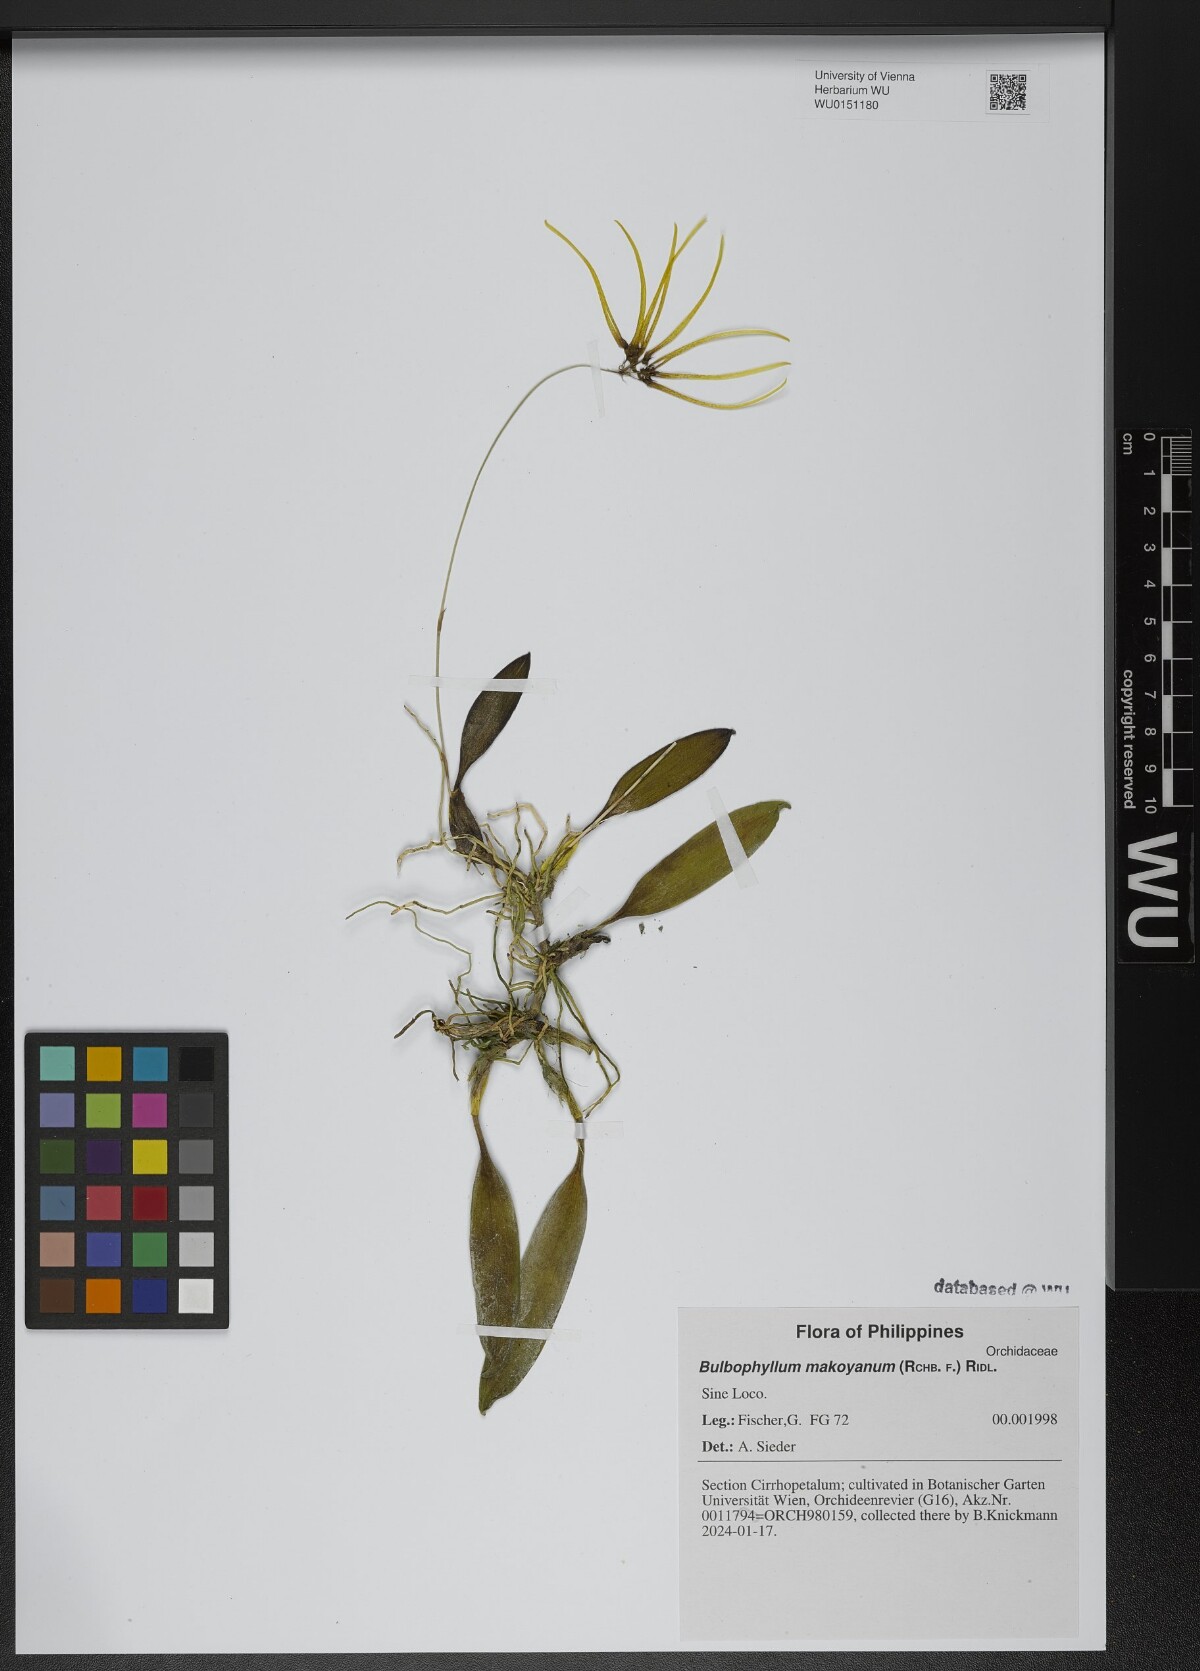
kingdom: Plantae
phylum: Tracheophyta
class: Liliopsida
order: Asparagales
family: Orchidaceae
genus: Bulbophyllum
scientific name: Bulbophyllum makoyanum
